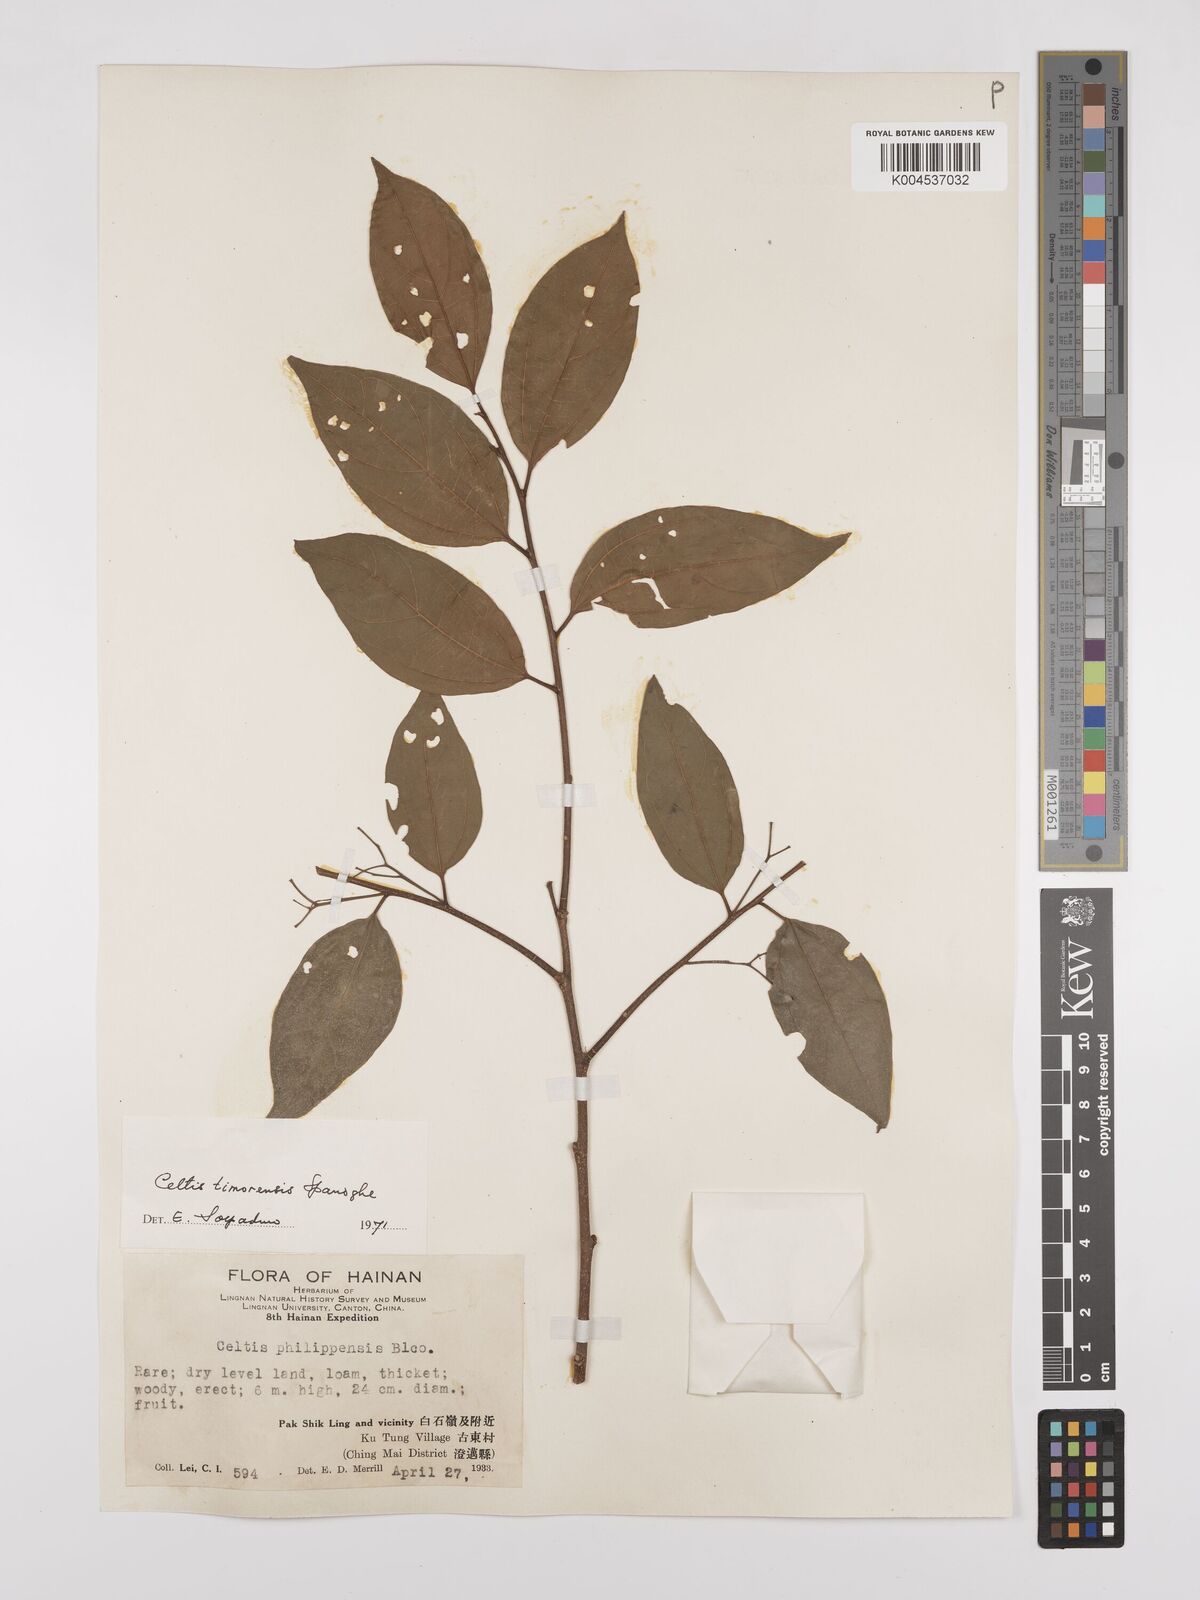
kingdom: Plantae
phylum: Tracheophyta
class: Magnoliopsida
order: Rosales
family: Cannabaceae
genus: Celtis
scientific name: Celtis timorensis
